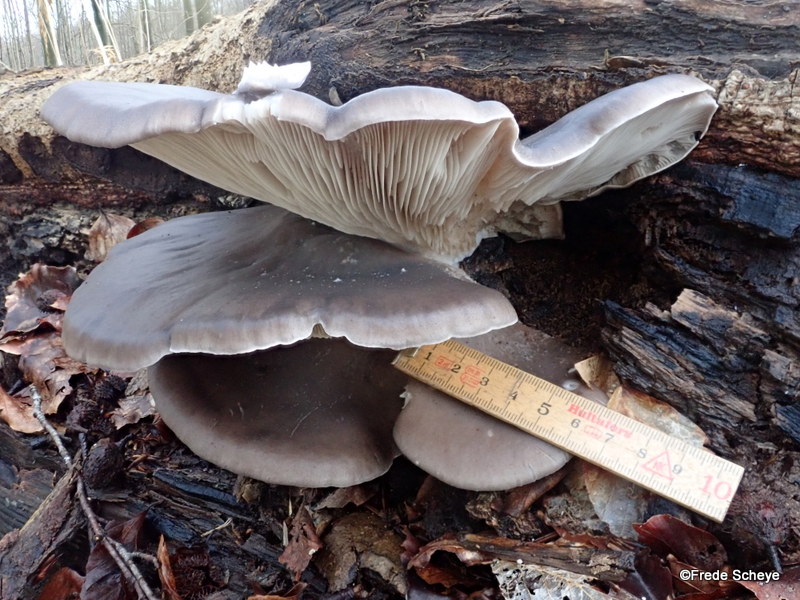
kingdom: Fungi
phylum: Basidiomycota
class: Agaricomycetes
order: Agaricales
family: Pleurotaceae
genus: Pleurotus
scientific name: Pleurotus ostreatus
